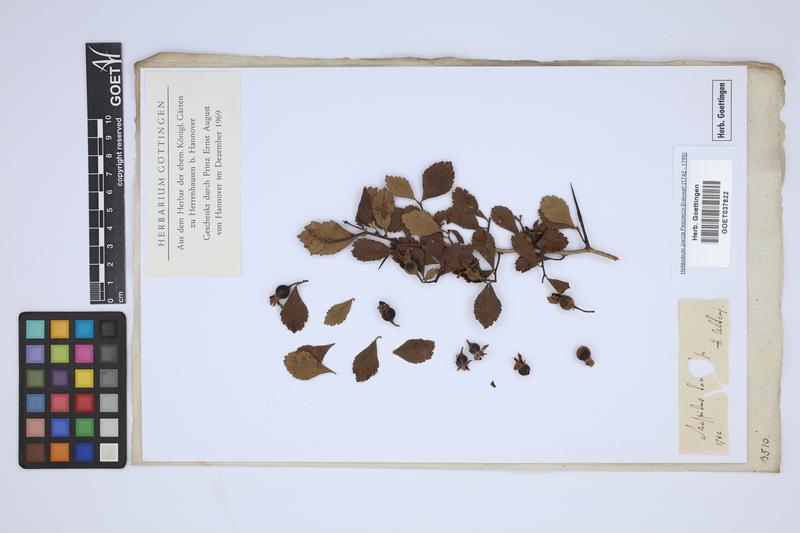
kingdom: Plantae
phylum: Tracheophyta
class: Magnoliopsida
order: Rosales
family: Rosaceae
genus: Mespilus
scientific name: Mespilus tomentosa
